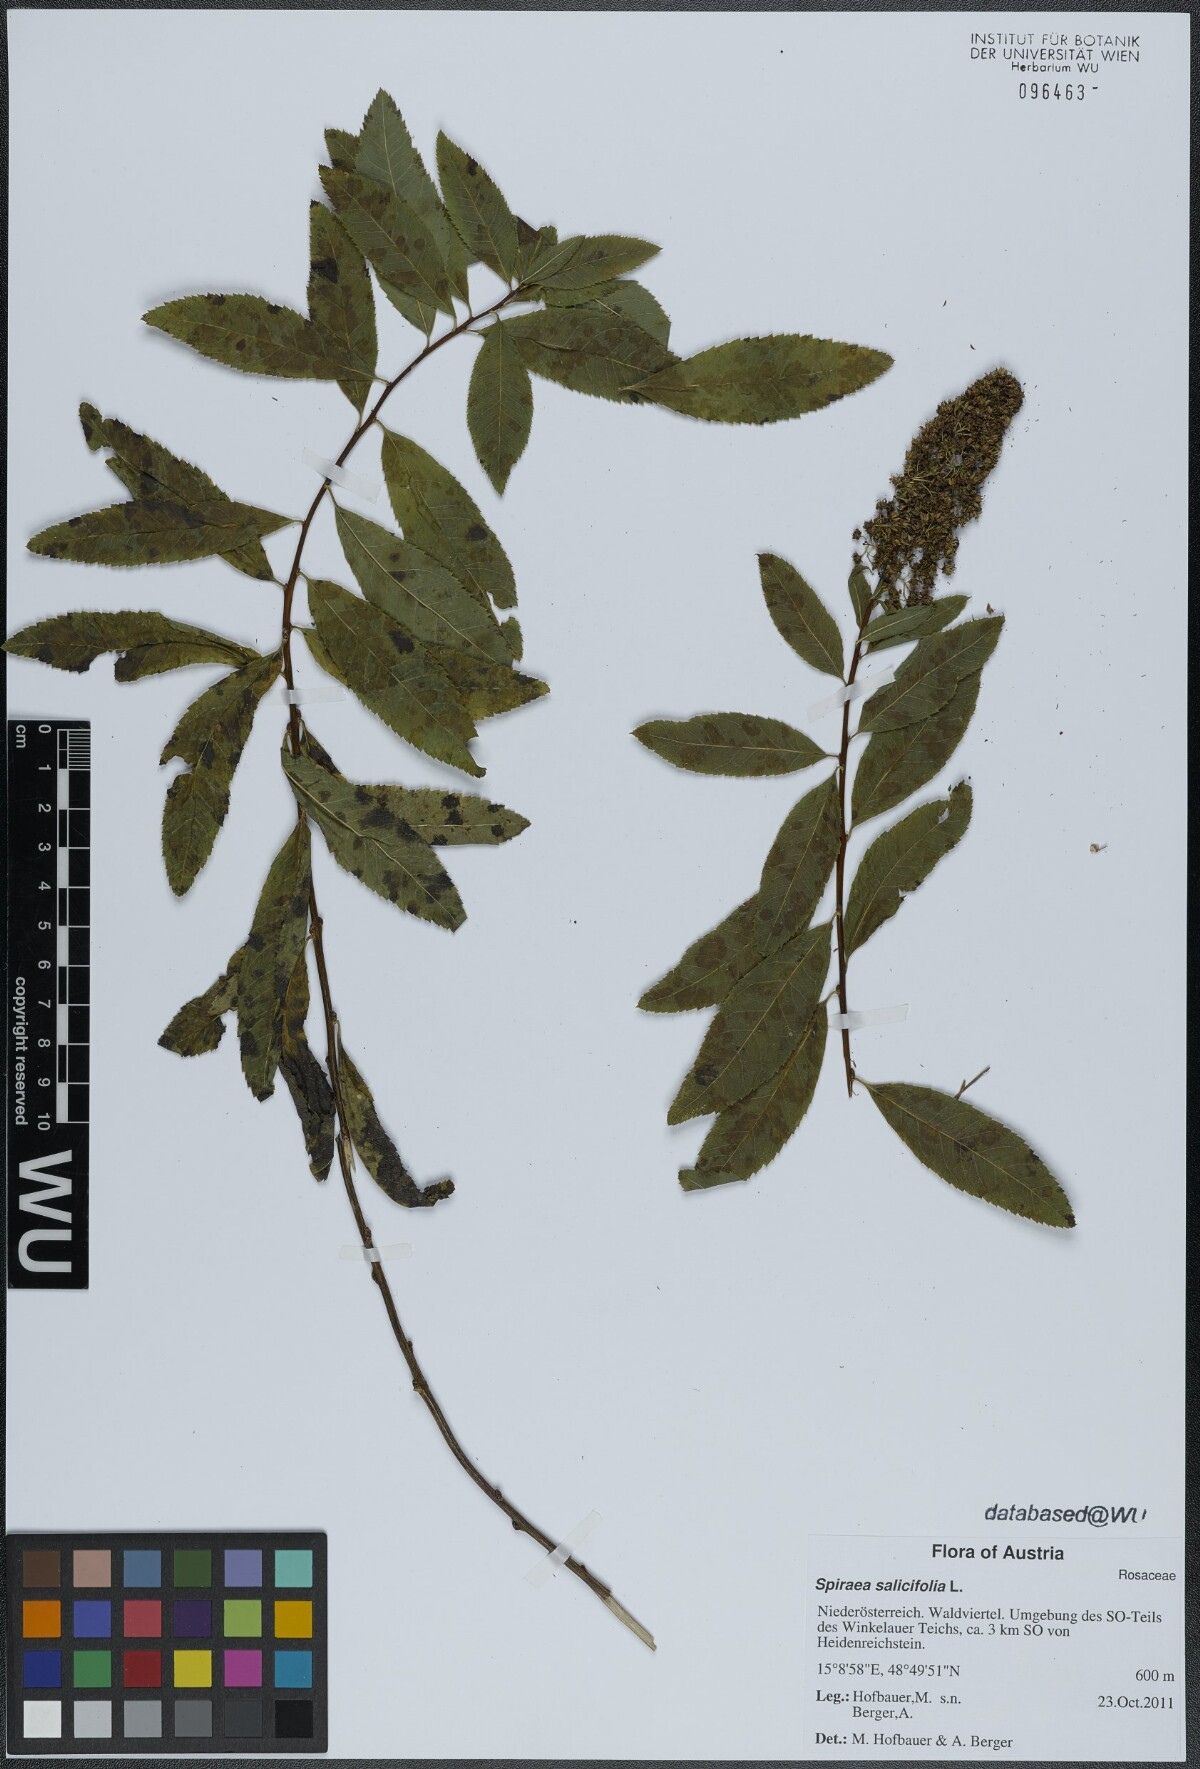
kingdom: Plantae
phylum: Tracheophyta
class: Magnoliopsida
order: Rosales
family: Rosaceae
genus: Spiraea
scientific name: Spiraea salicifolia
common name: Bridewort
